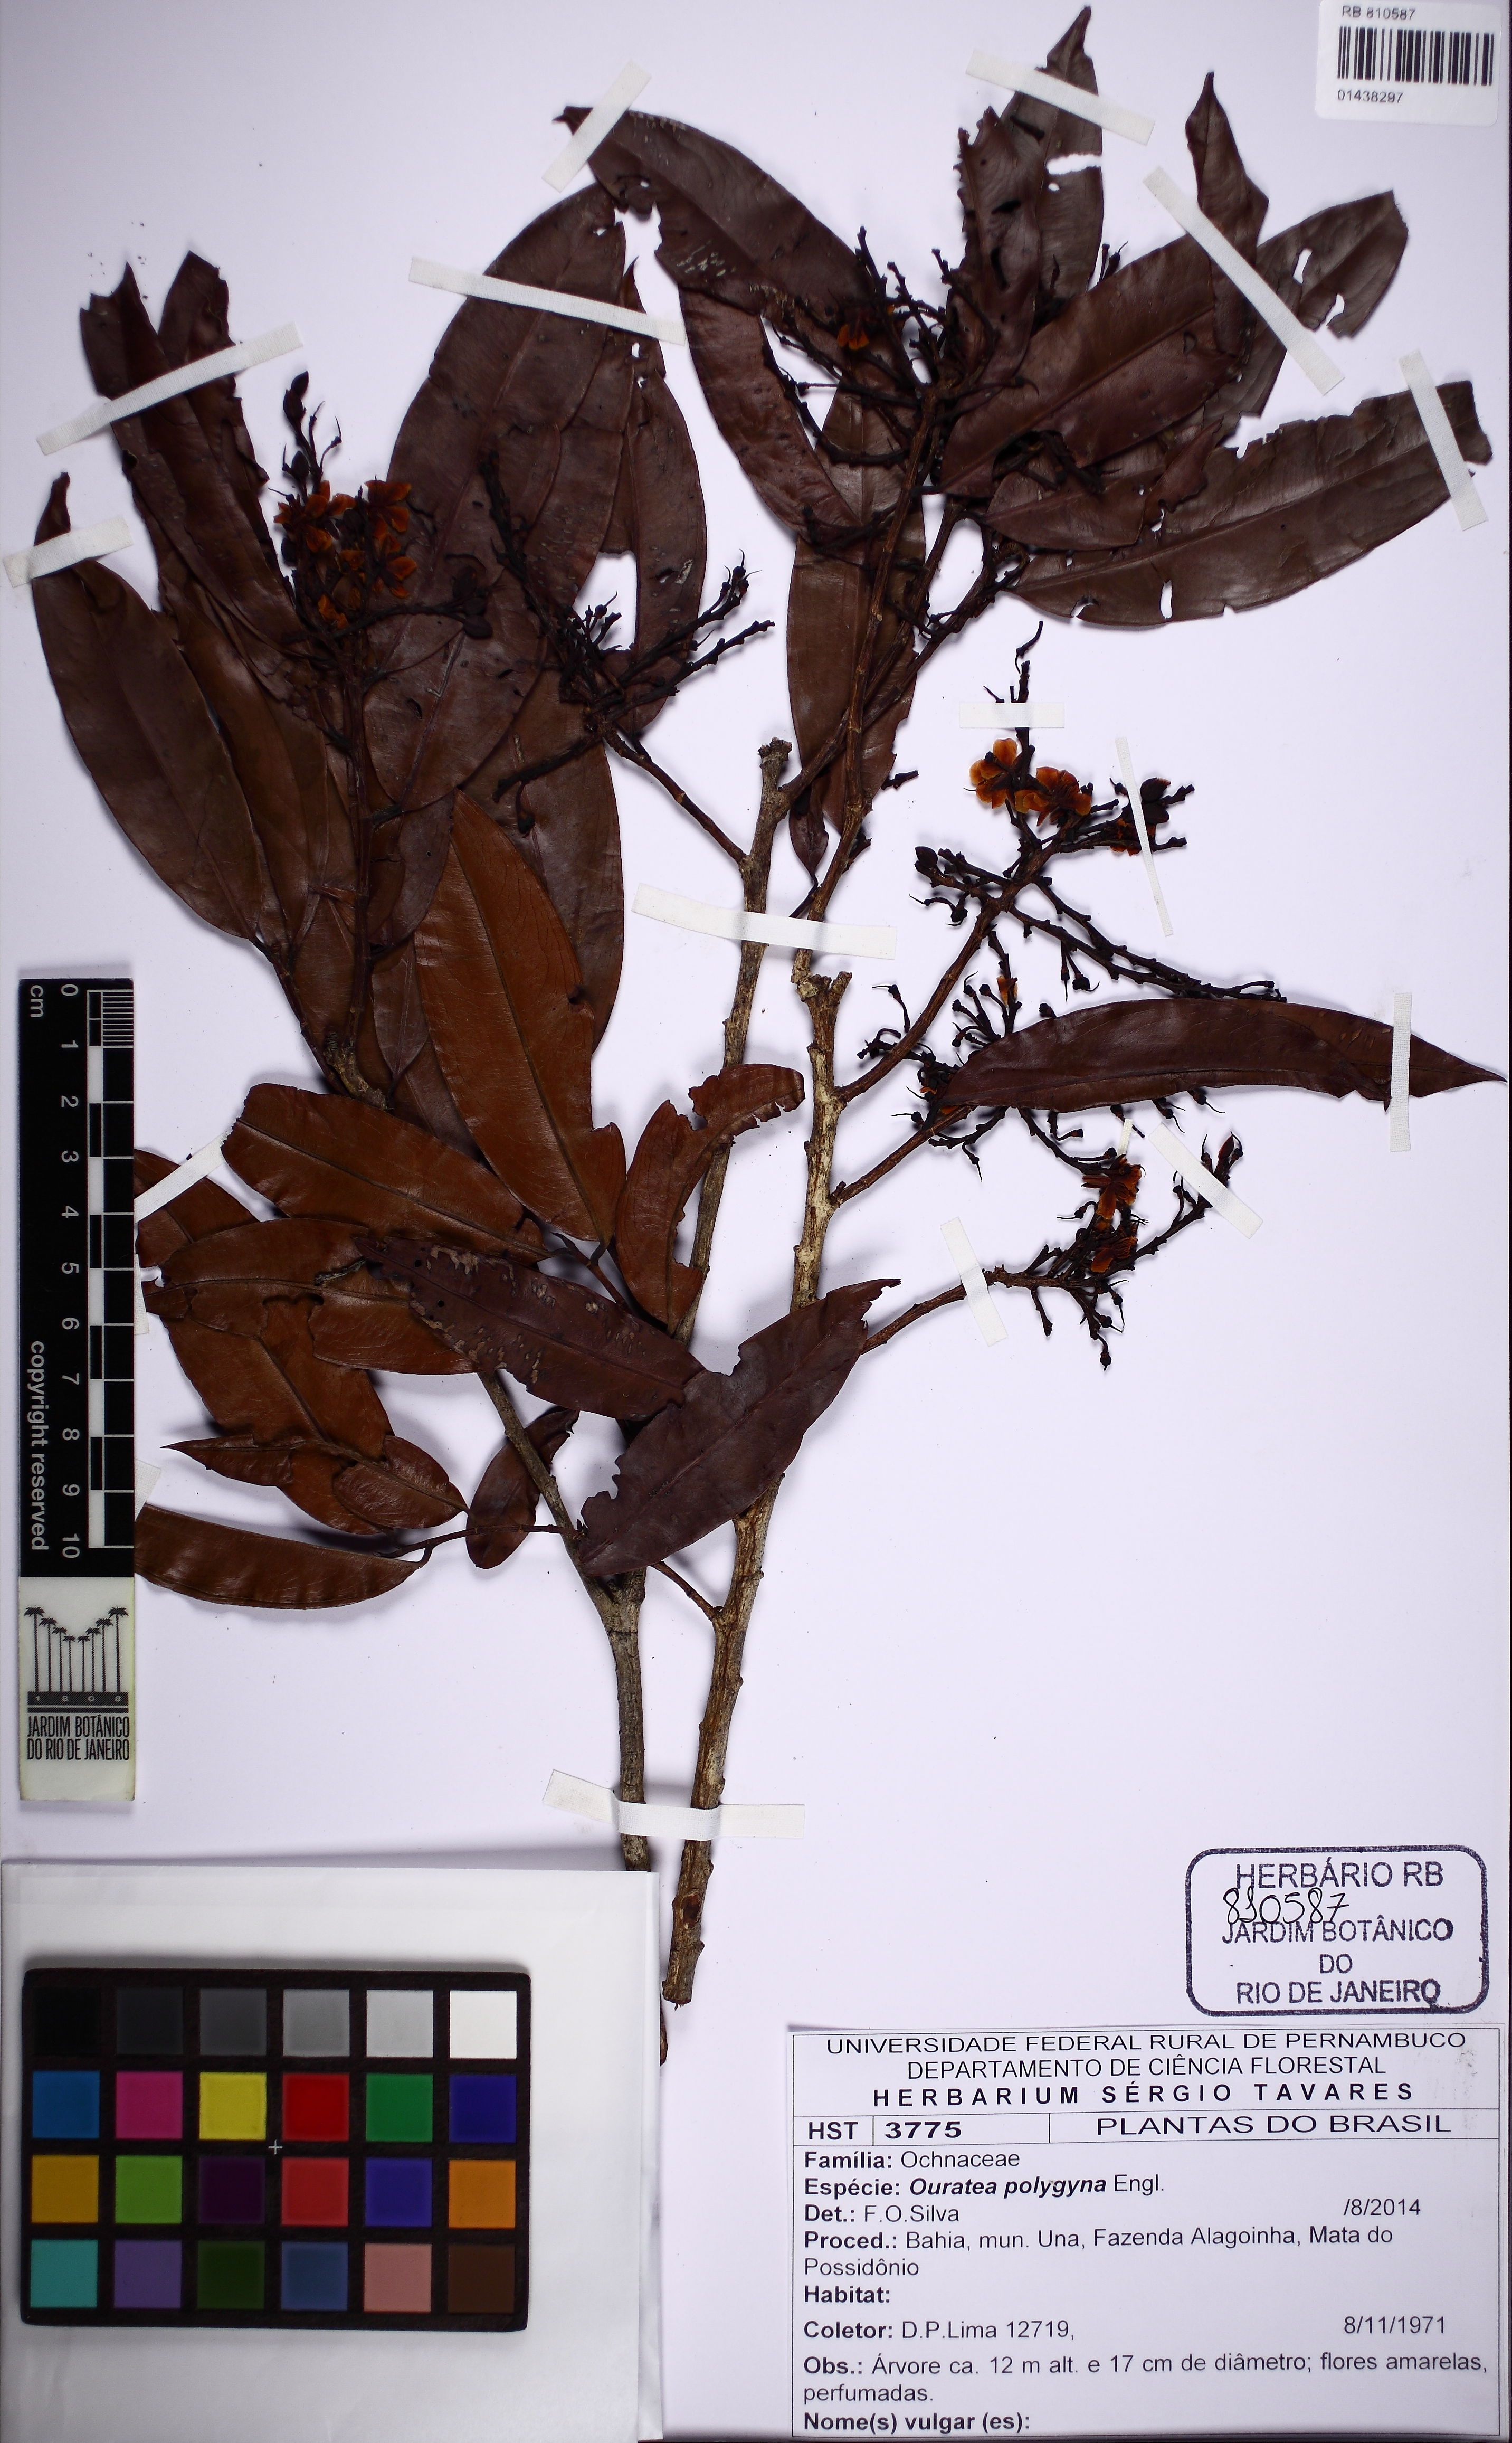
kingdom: Plantae
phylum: Tracheophyta
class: Magnoliopsida
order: Malpighiales
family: Ochnaceae
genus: Ouratea
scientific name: Ouratea polygyna
